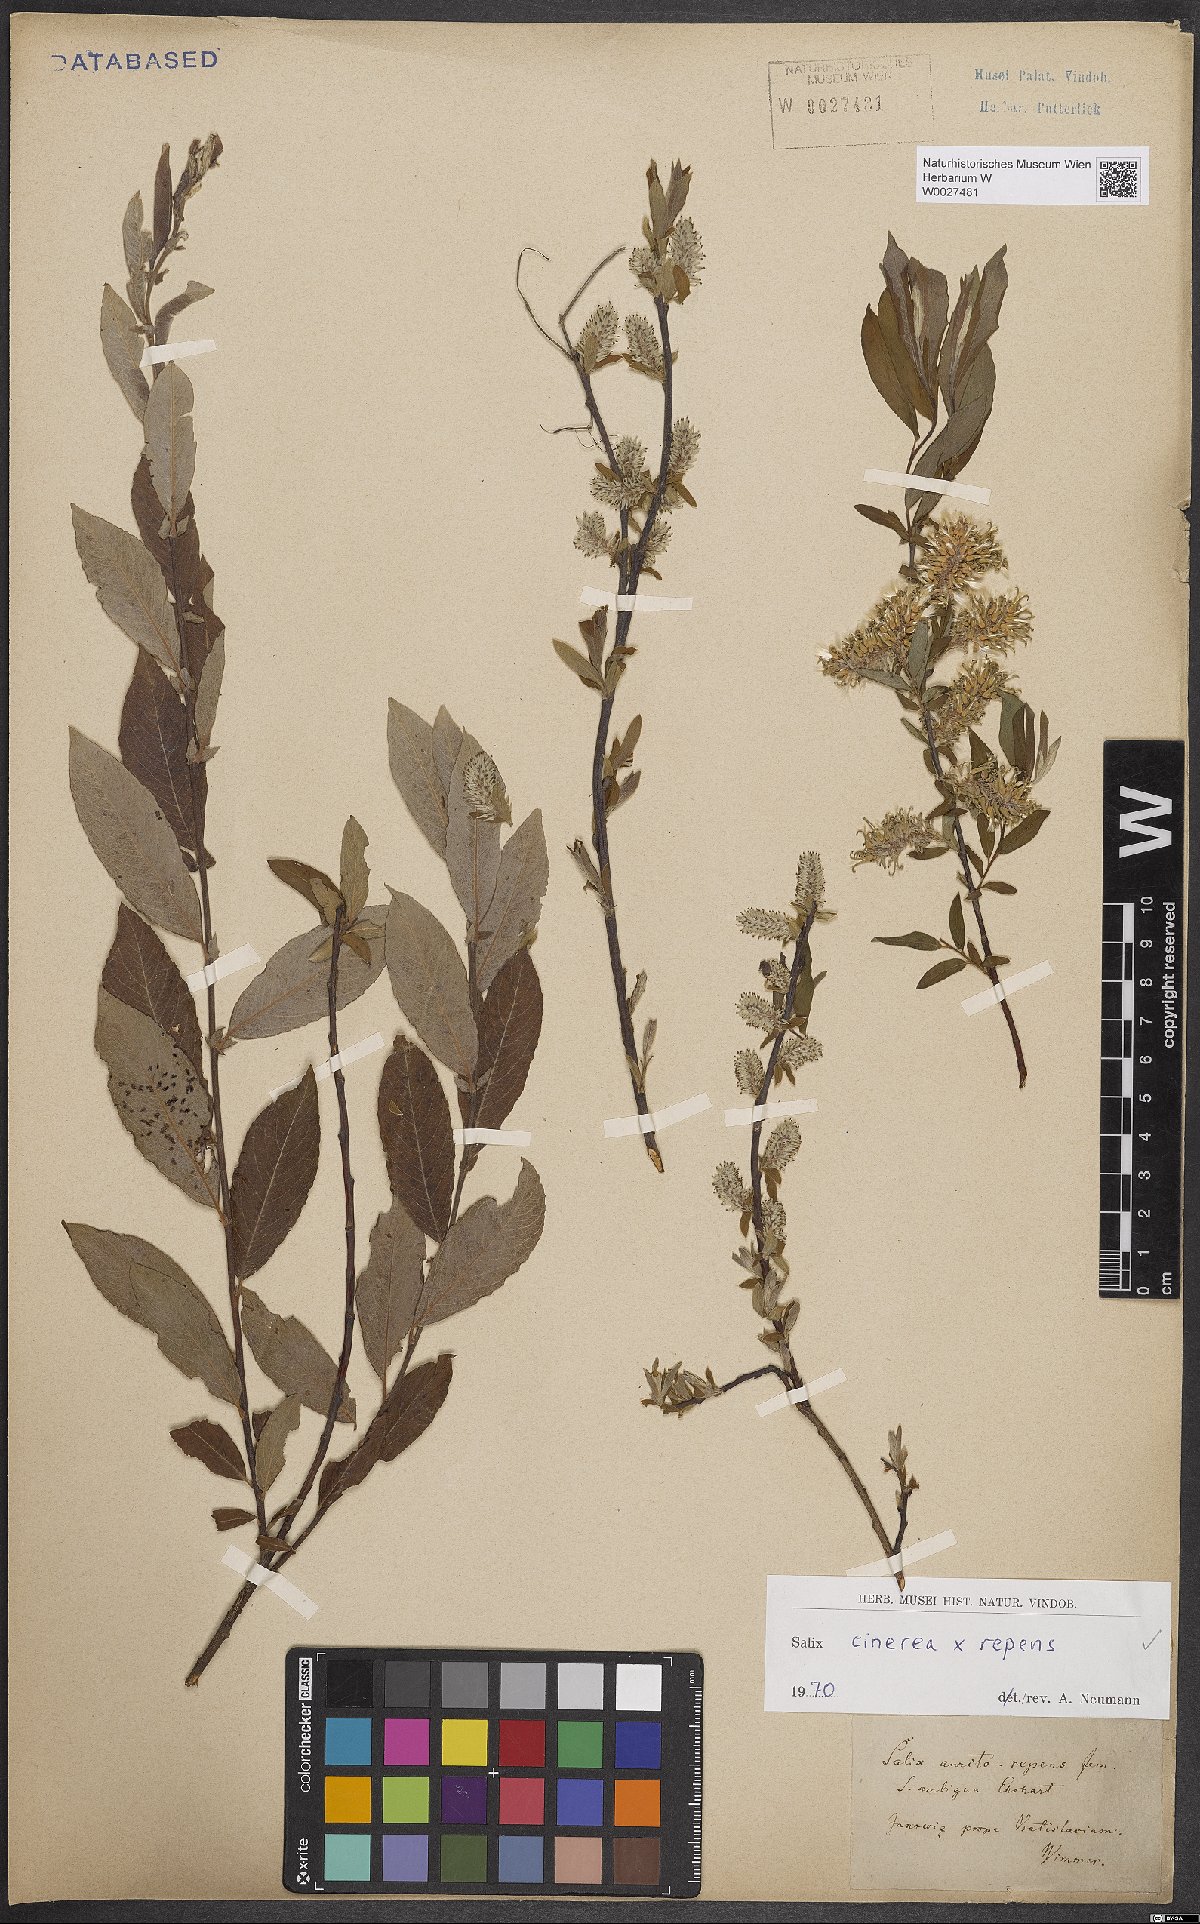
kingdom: Plantae
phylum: Tracheophyta
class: Magnoliopsida
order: Malpighiales
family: Salicaceae
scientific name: Salicaceae
